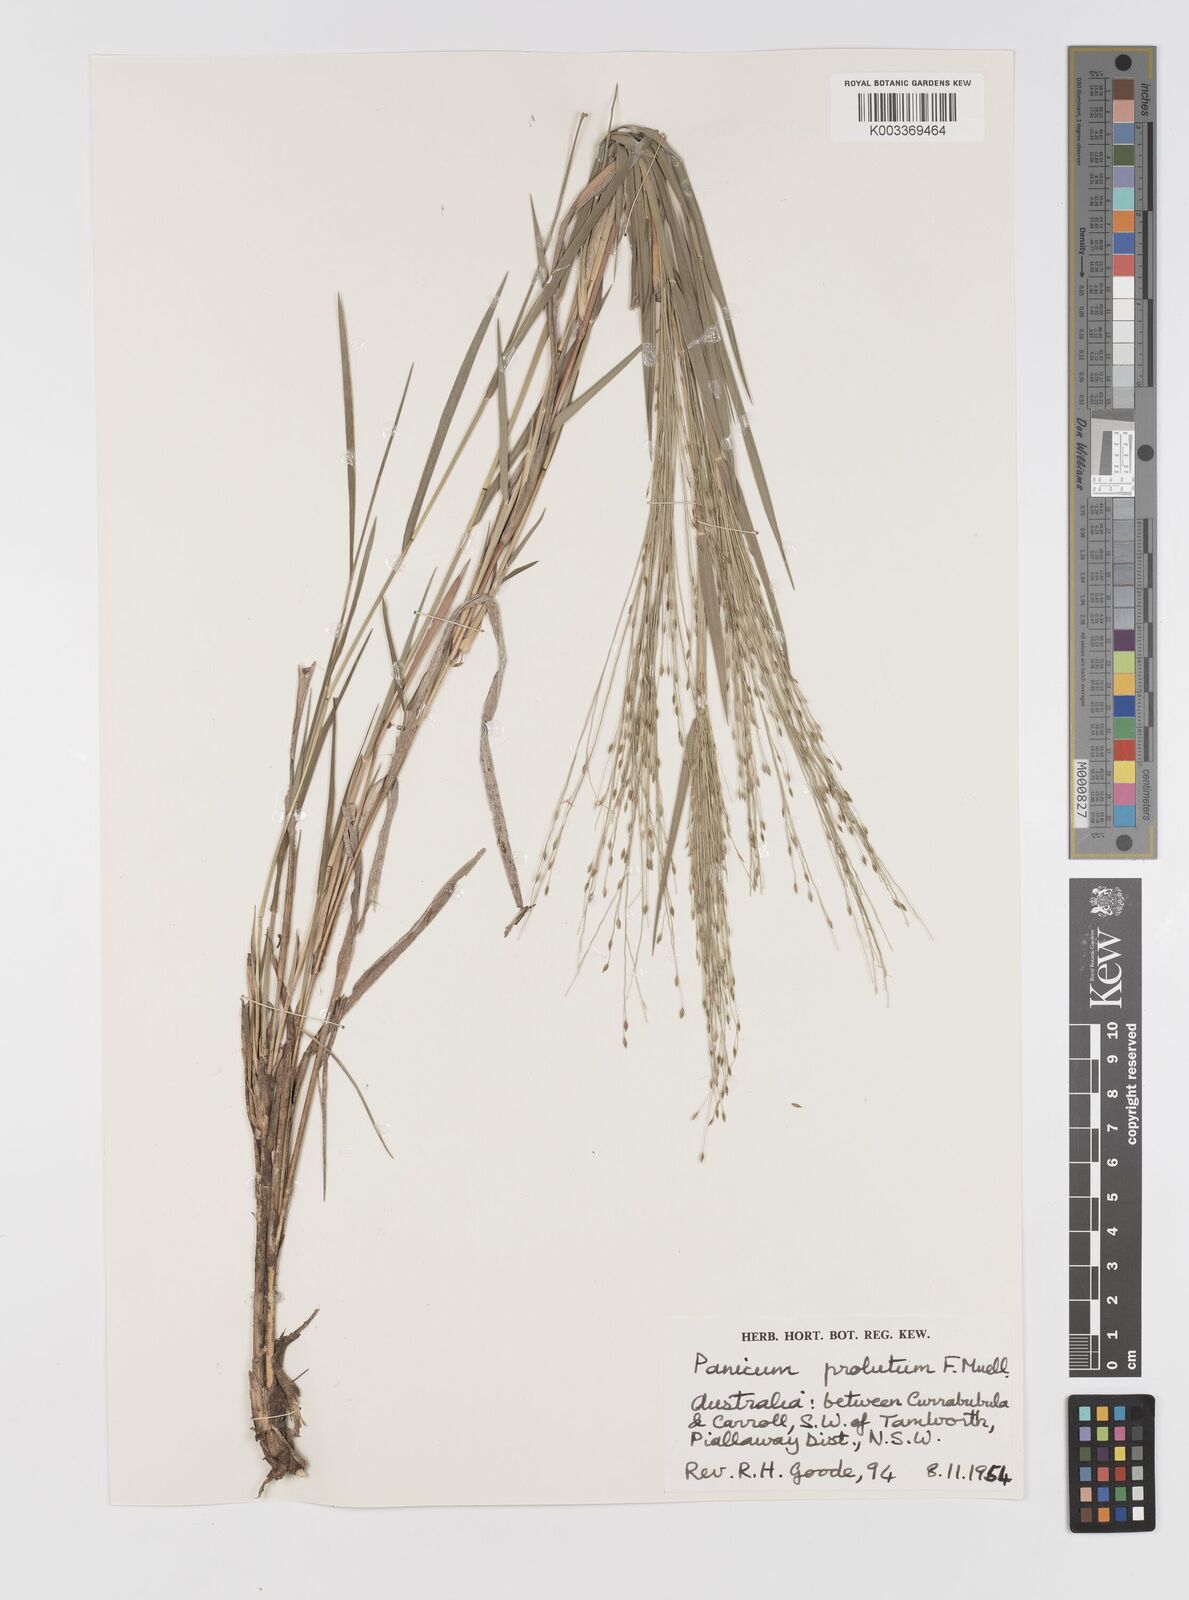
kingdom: Plantae
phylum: Tracheophyta
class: Liliopsida
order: Poales
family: Poaceae
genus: Walwhalleya
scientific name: Walwhalleya proluta
